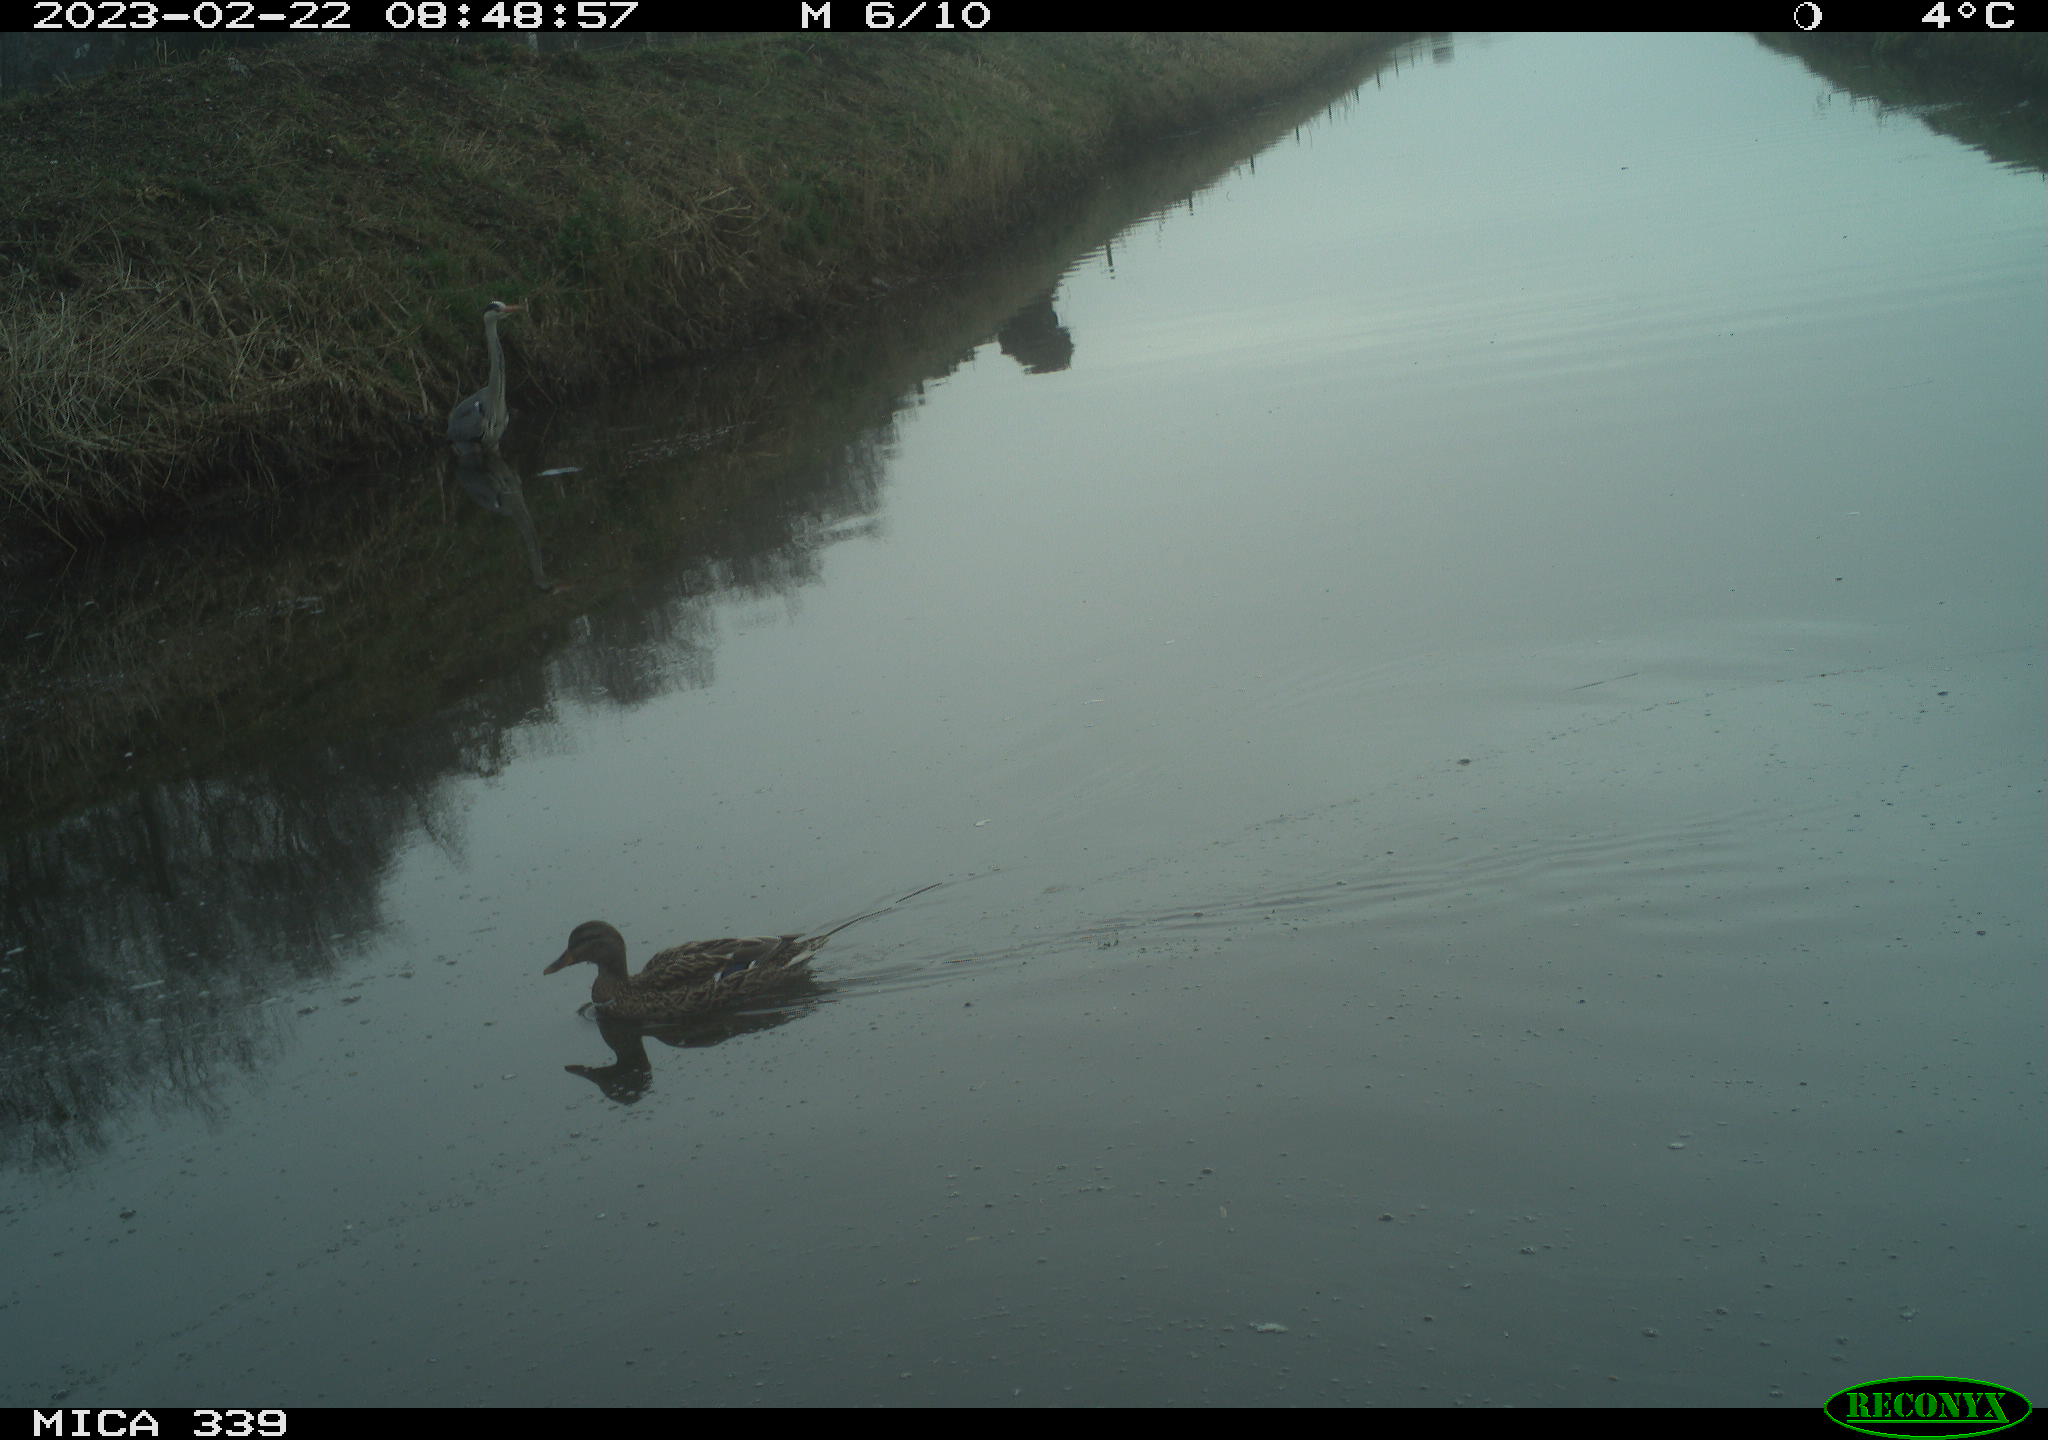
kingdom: Animalia
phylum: Chordata
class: Aves
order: Anseriformes
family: Anatidae
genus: Anas
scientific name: Anas
